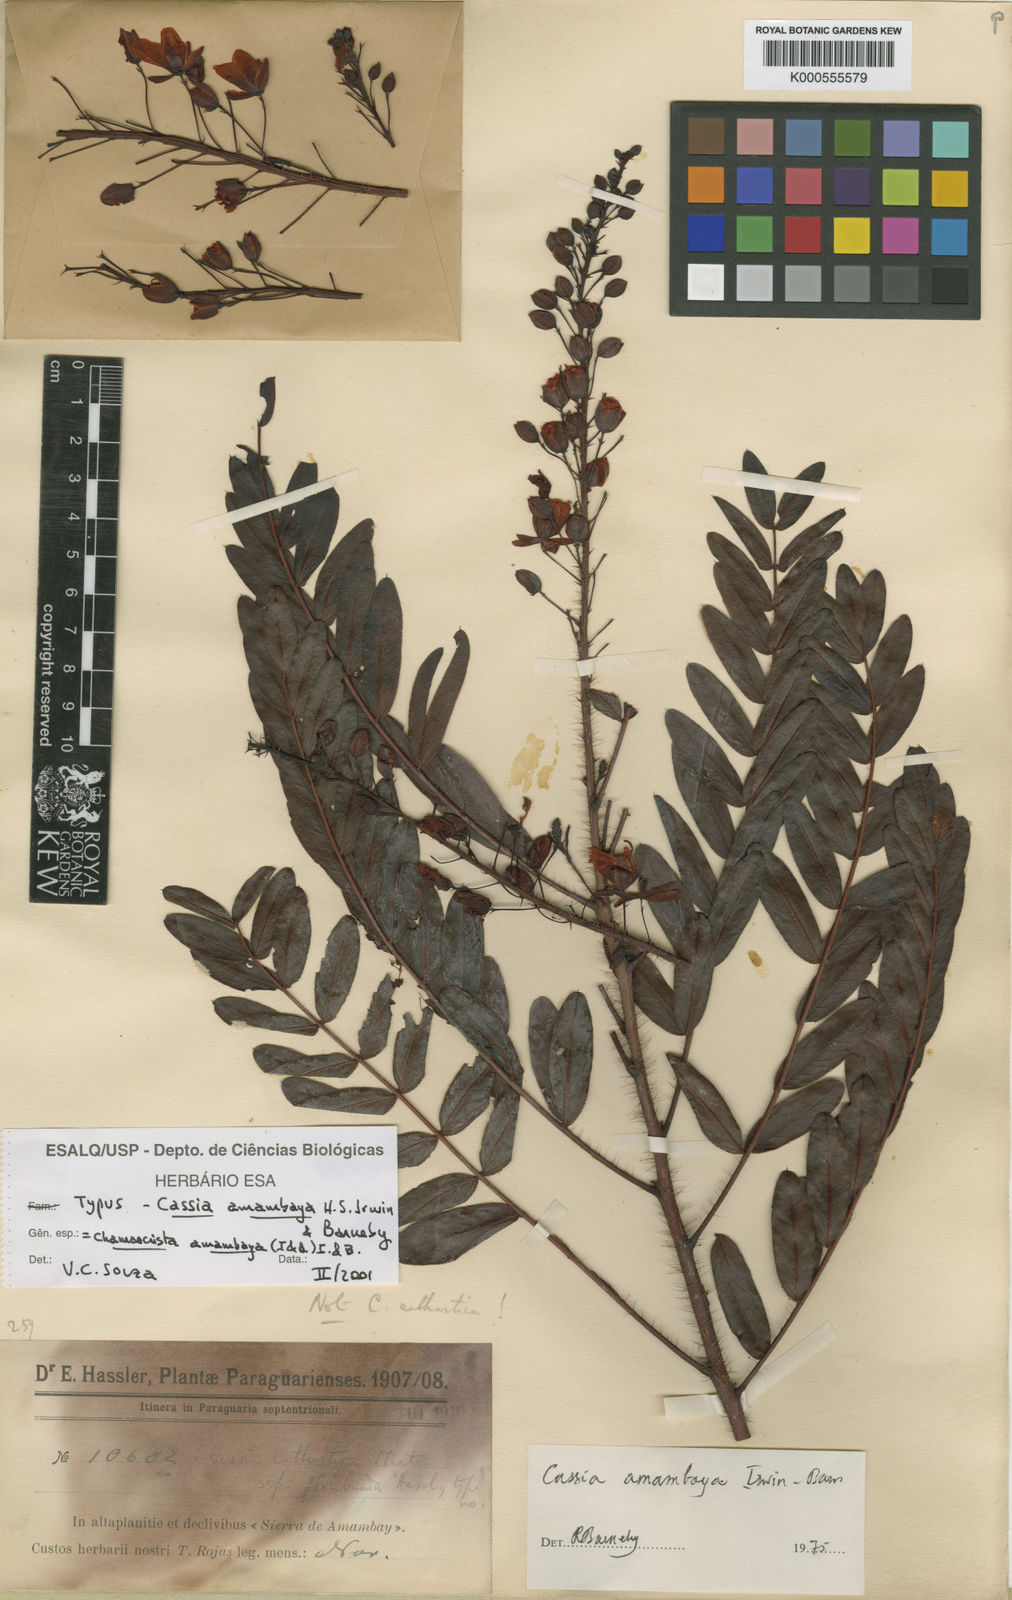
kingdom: Plantae
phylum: Tracheophyta
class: Magnoliopsida
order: Fabales
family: Fabaceae
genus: Chamaecrista
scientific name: Chamaecrista amambaya
